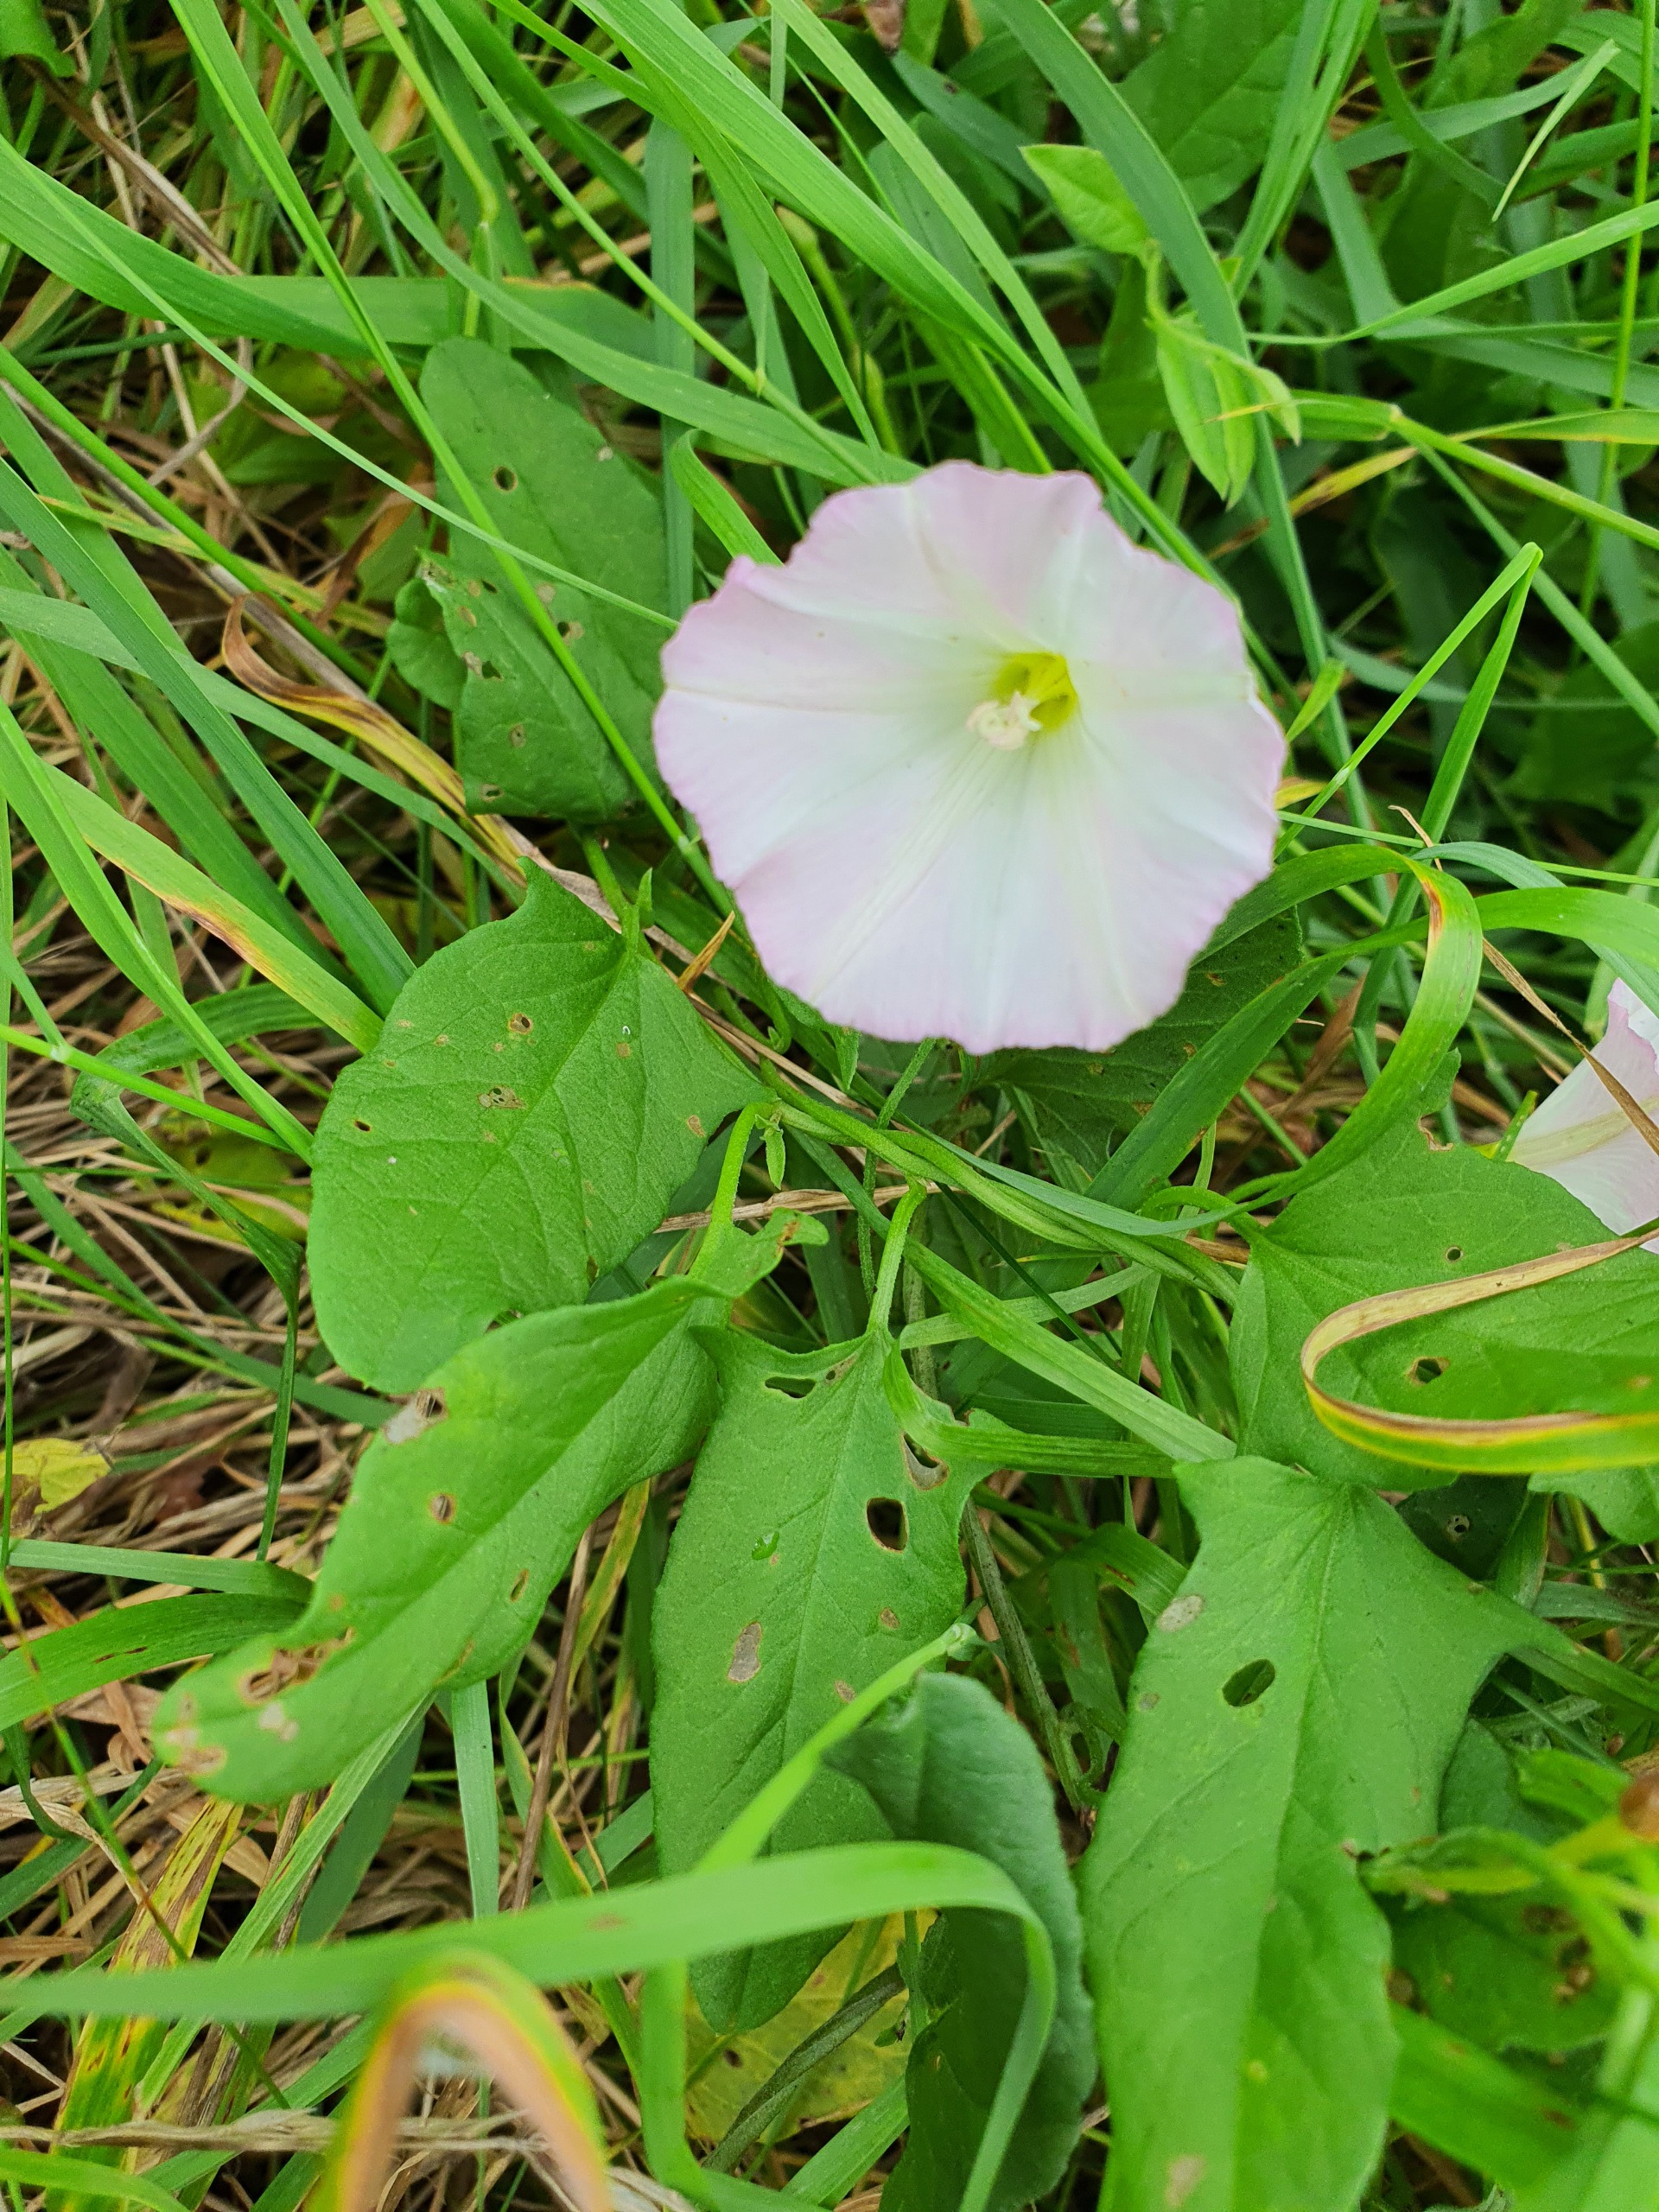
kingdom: Plantae
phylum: Tracheophyta
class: Magnoliopsida
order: Solanales
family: Convolvulaceae
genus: Convolvulus
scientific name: Convolvulus arvensis
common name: Ager-snerle
